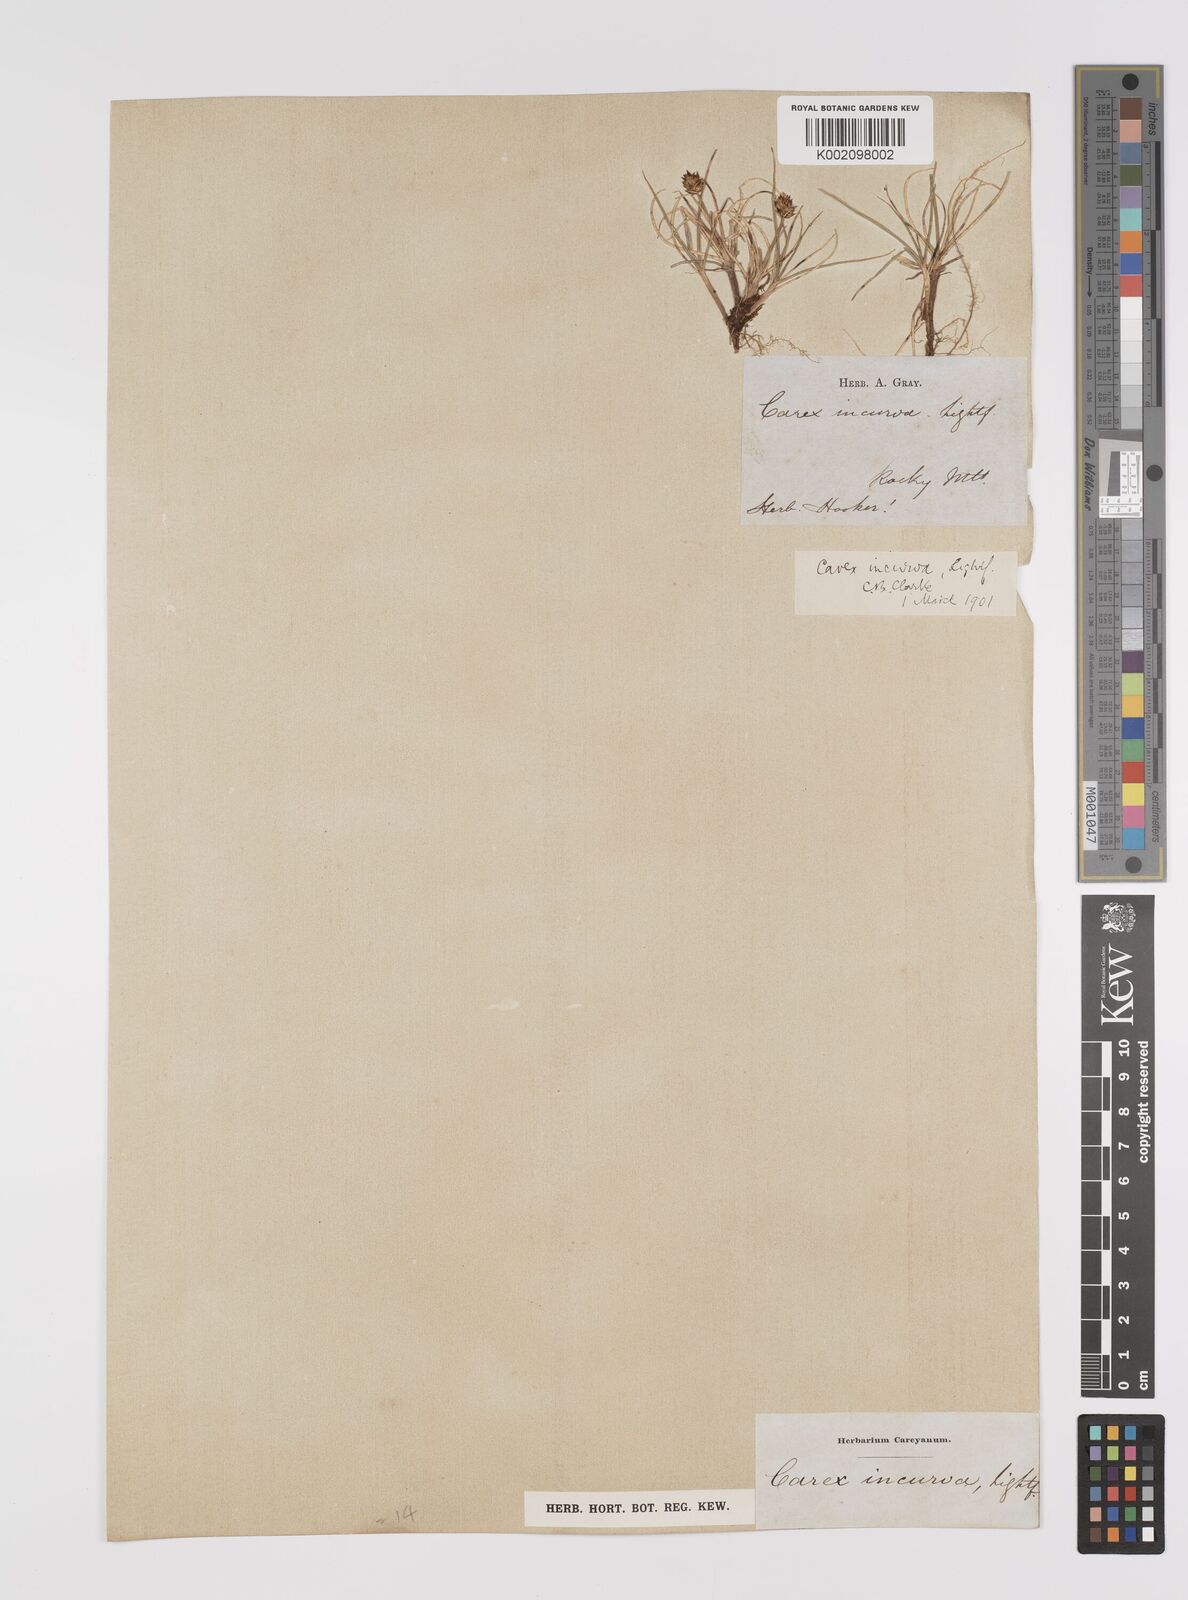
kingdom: Plantae
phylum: Tracheophyta
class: Liliopsida
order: Poales
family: Cyperaceae
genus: Carex
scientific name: Carex maritima
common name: Curved sedge
